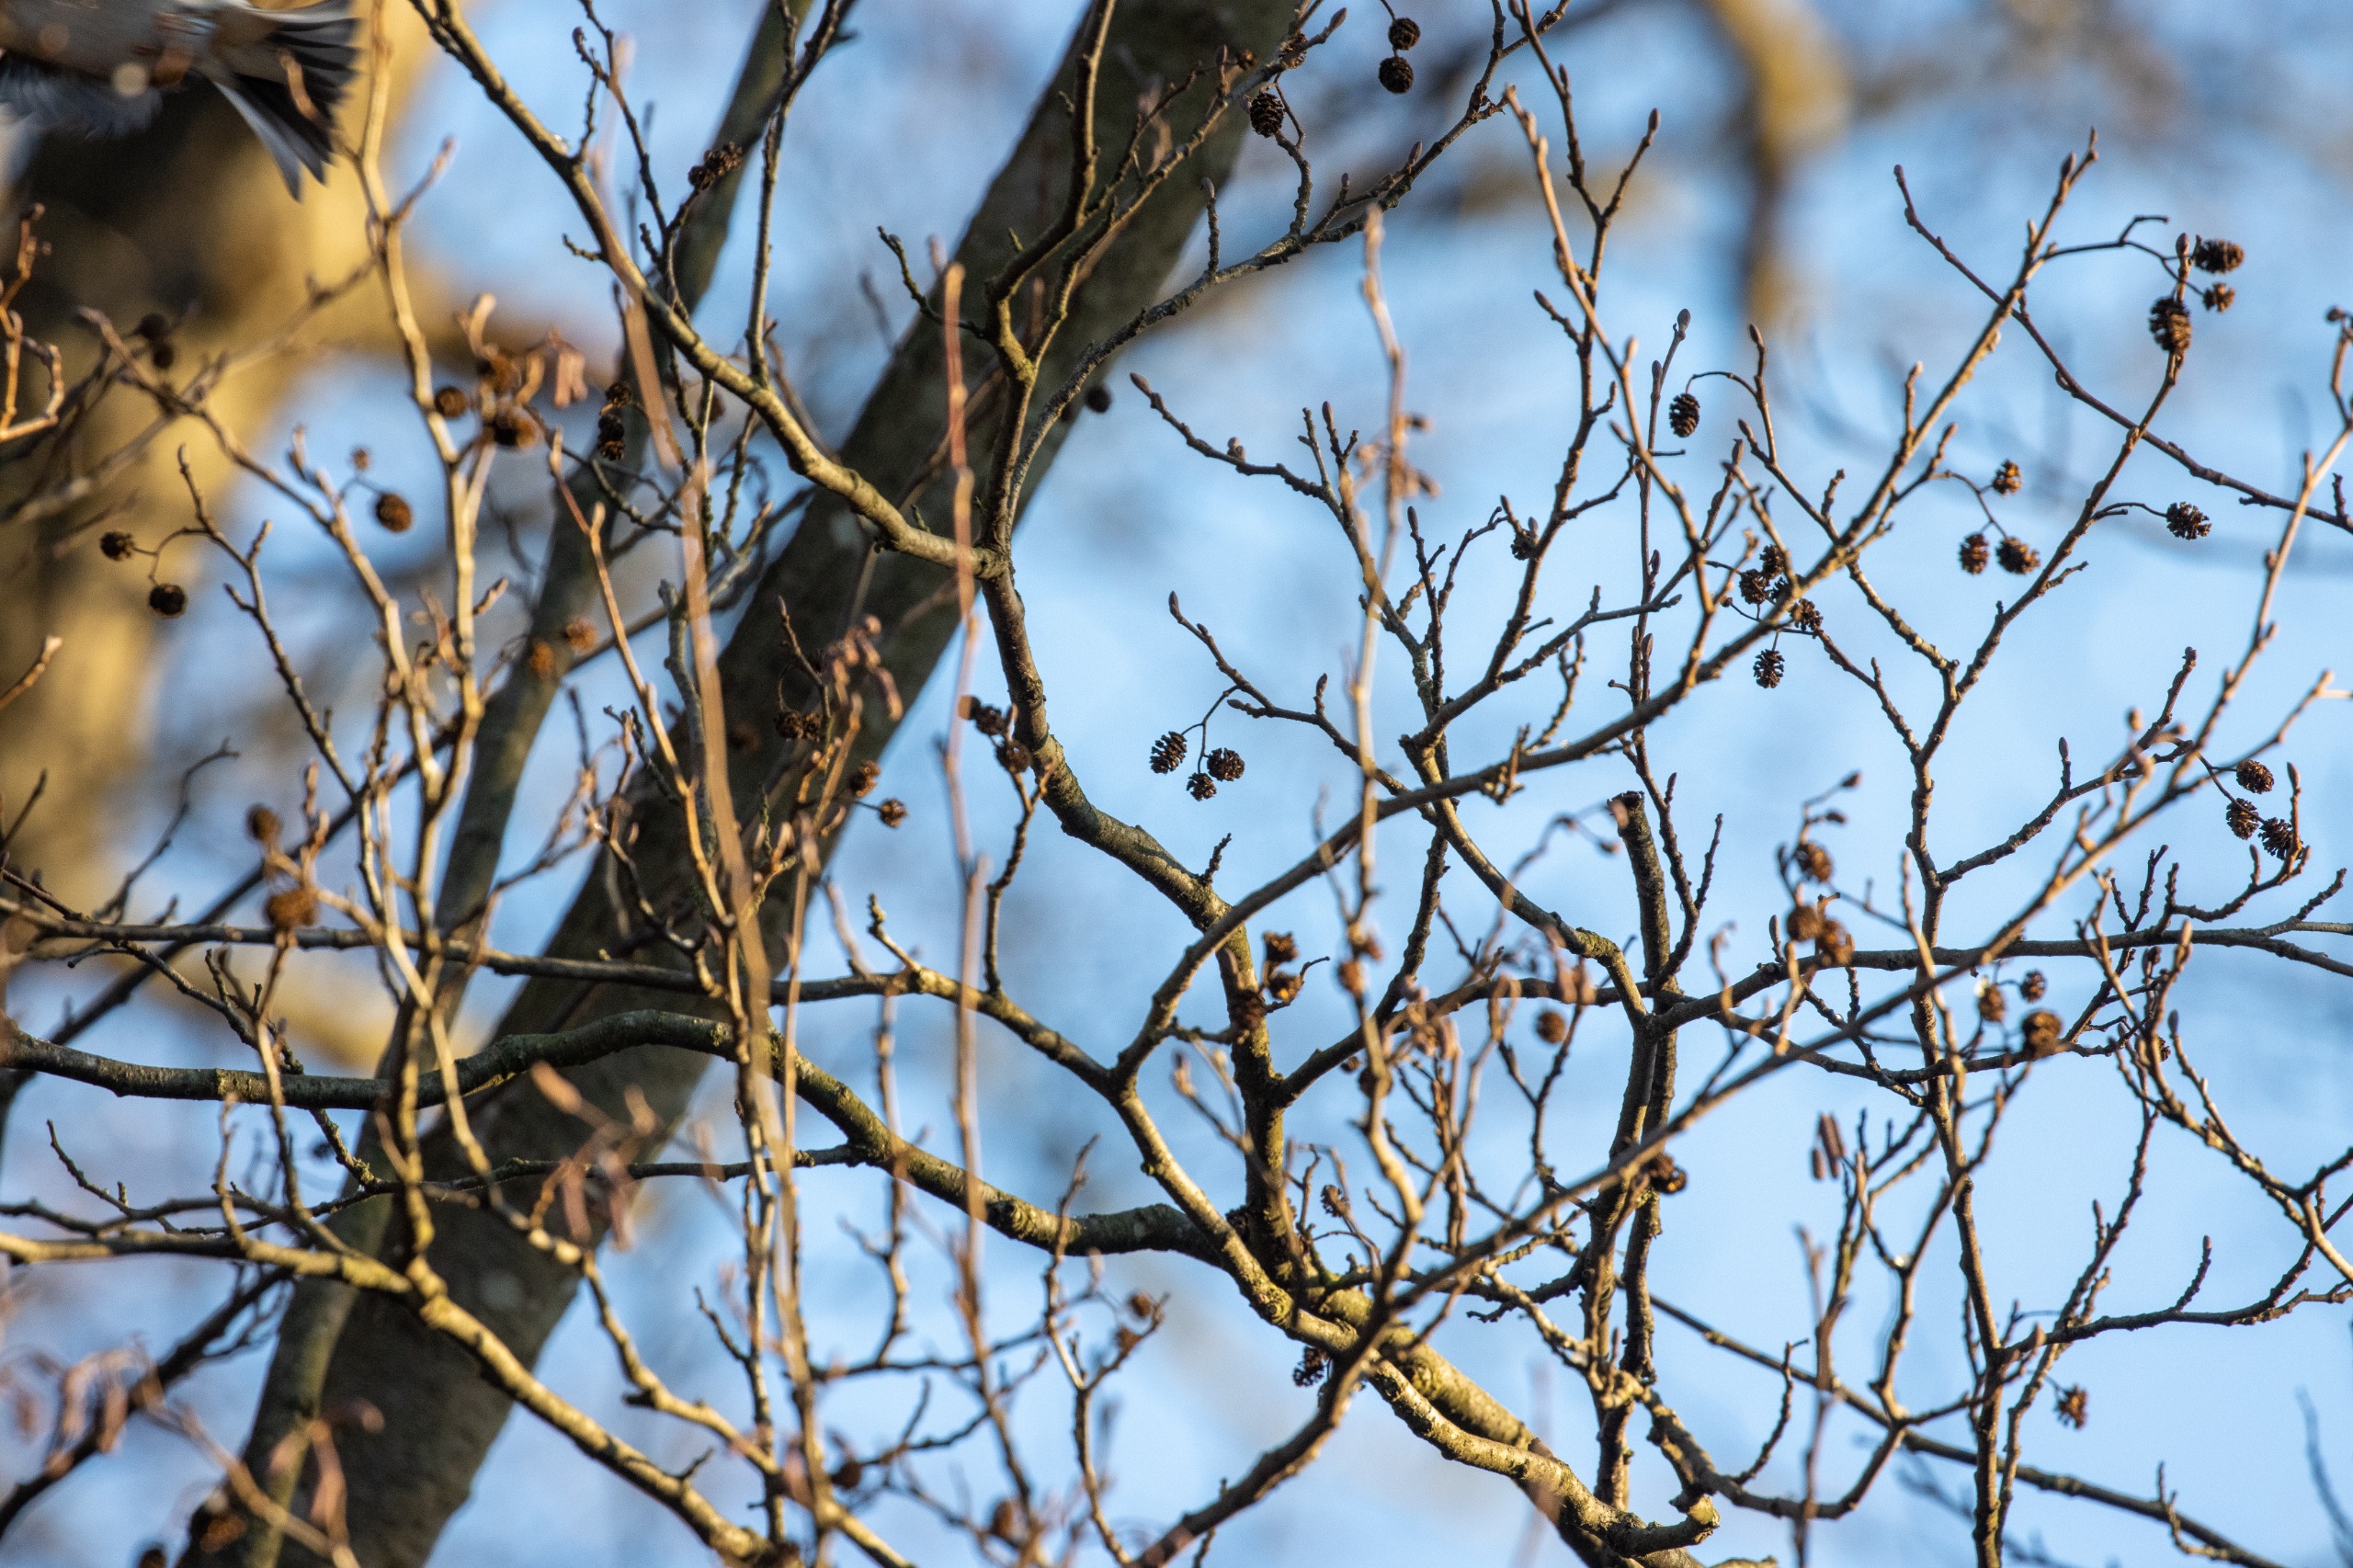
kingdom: Plantae
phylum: Tracheophyta
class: Magnoliopsida
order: Fagales
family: Betulaceae
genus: Alnus
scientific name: Alnus glutinosa
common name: Rød-el
